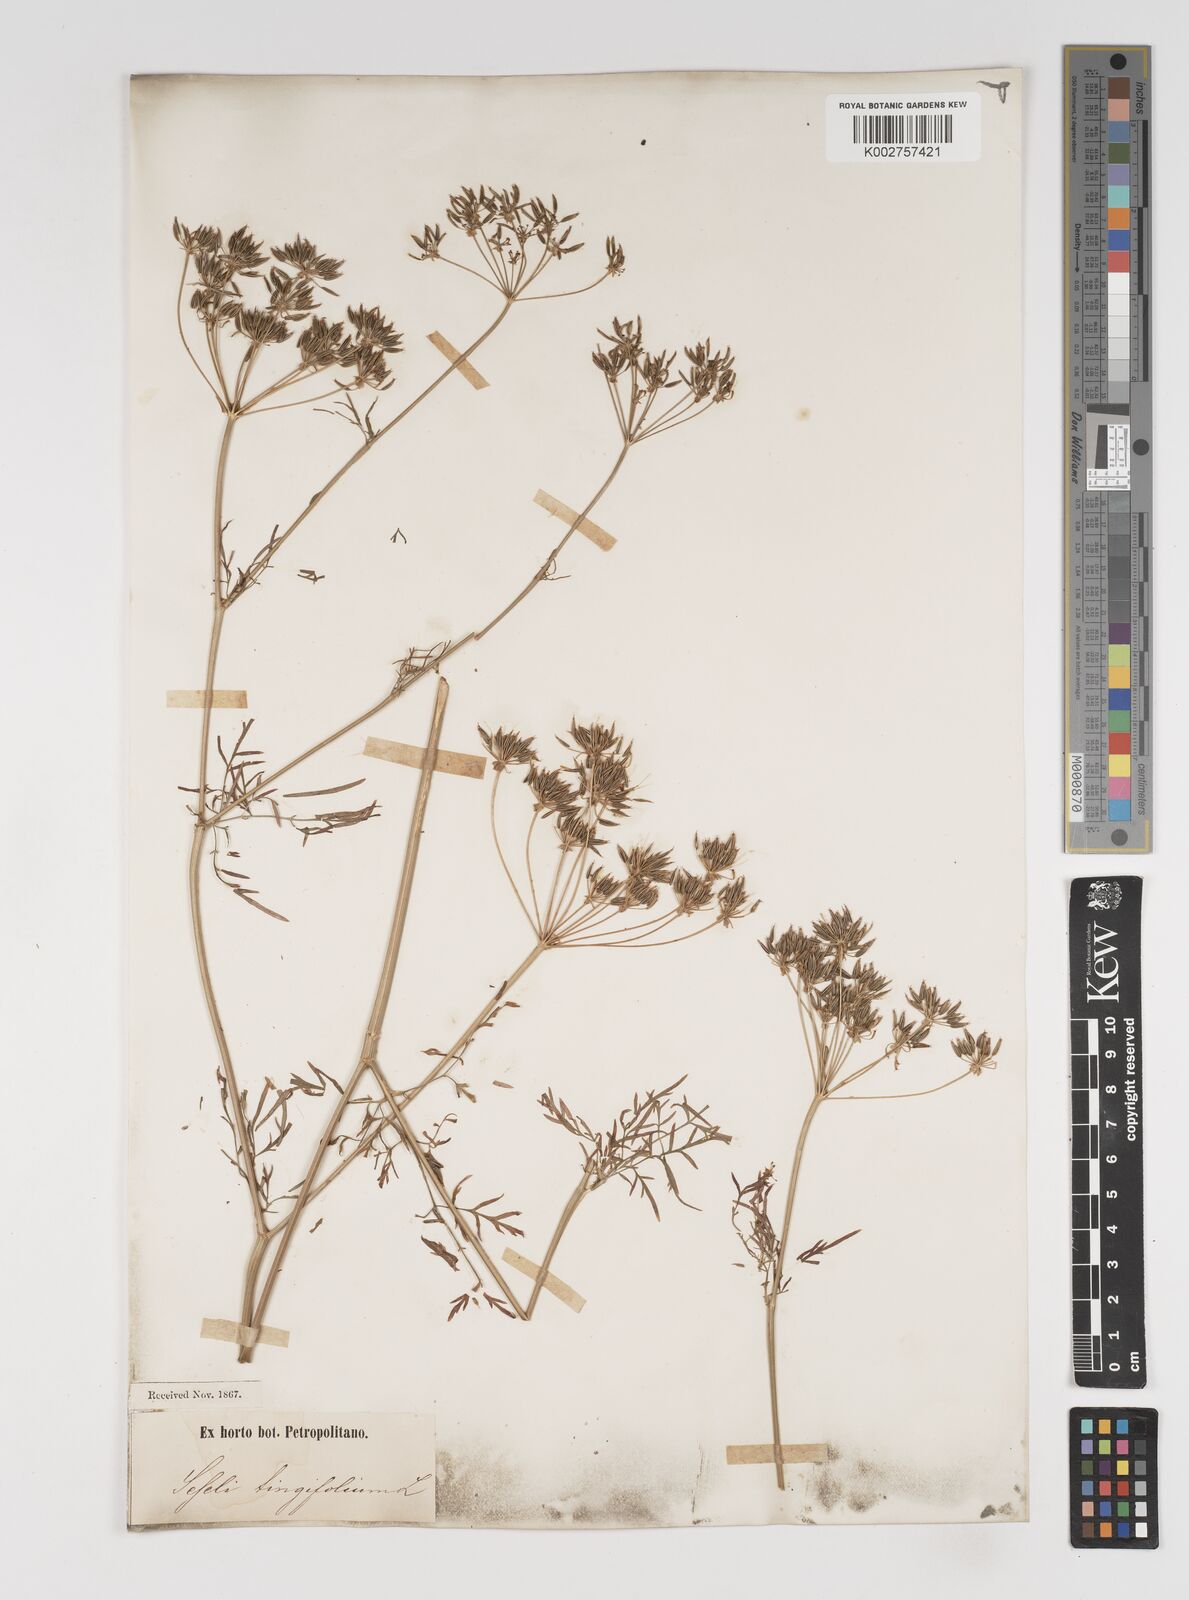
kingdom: Plantae
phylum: Tracheophyta
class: Magnoliopsida
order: Apiales
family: Apiaceae
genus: Seseli
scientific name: Seseli longifolium
